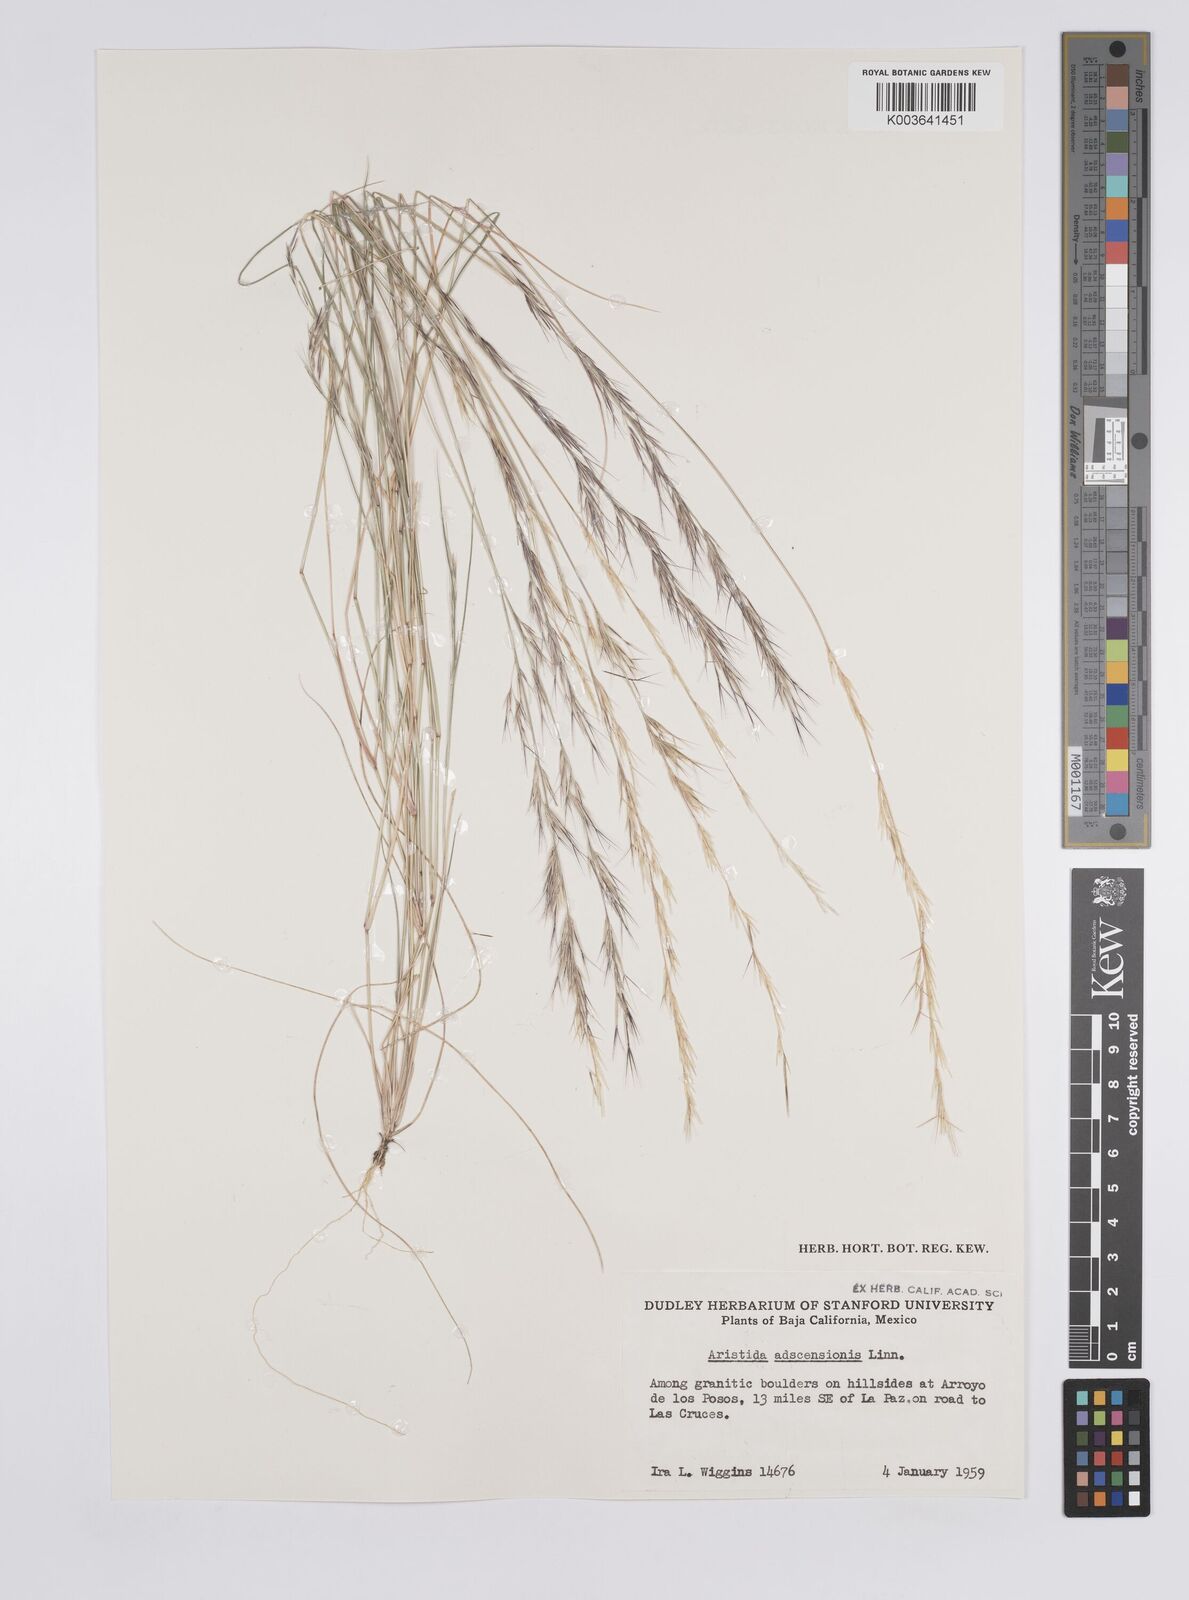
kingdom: Plantae
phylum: Tracheophyta
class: Liliopsida
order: Poales
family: Poaceae
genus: Aristida
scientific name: Aristida adscensionis
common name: Sixweeks threeawn
